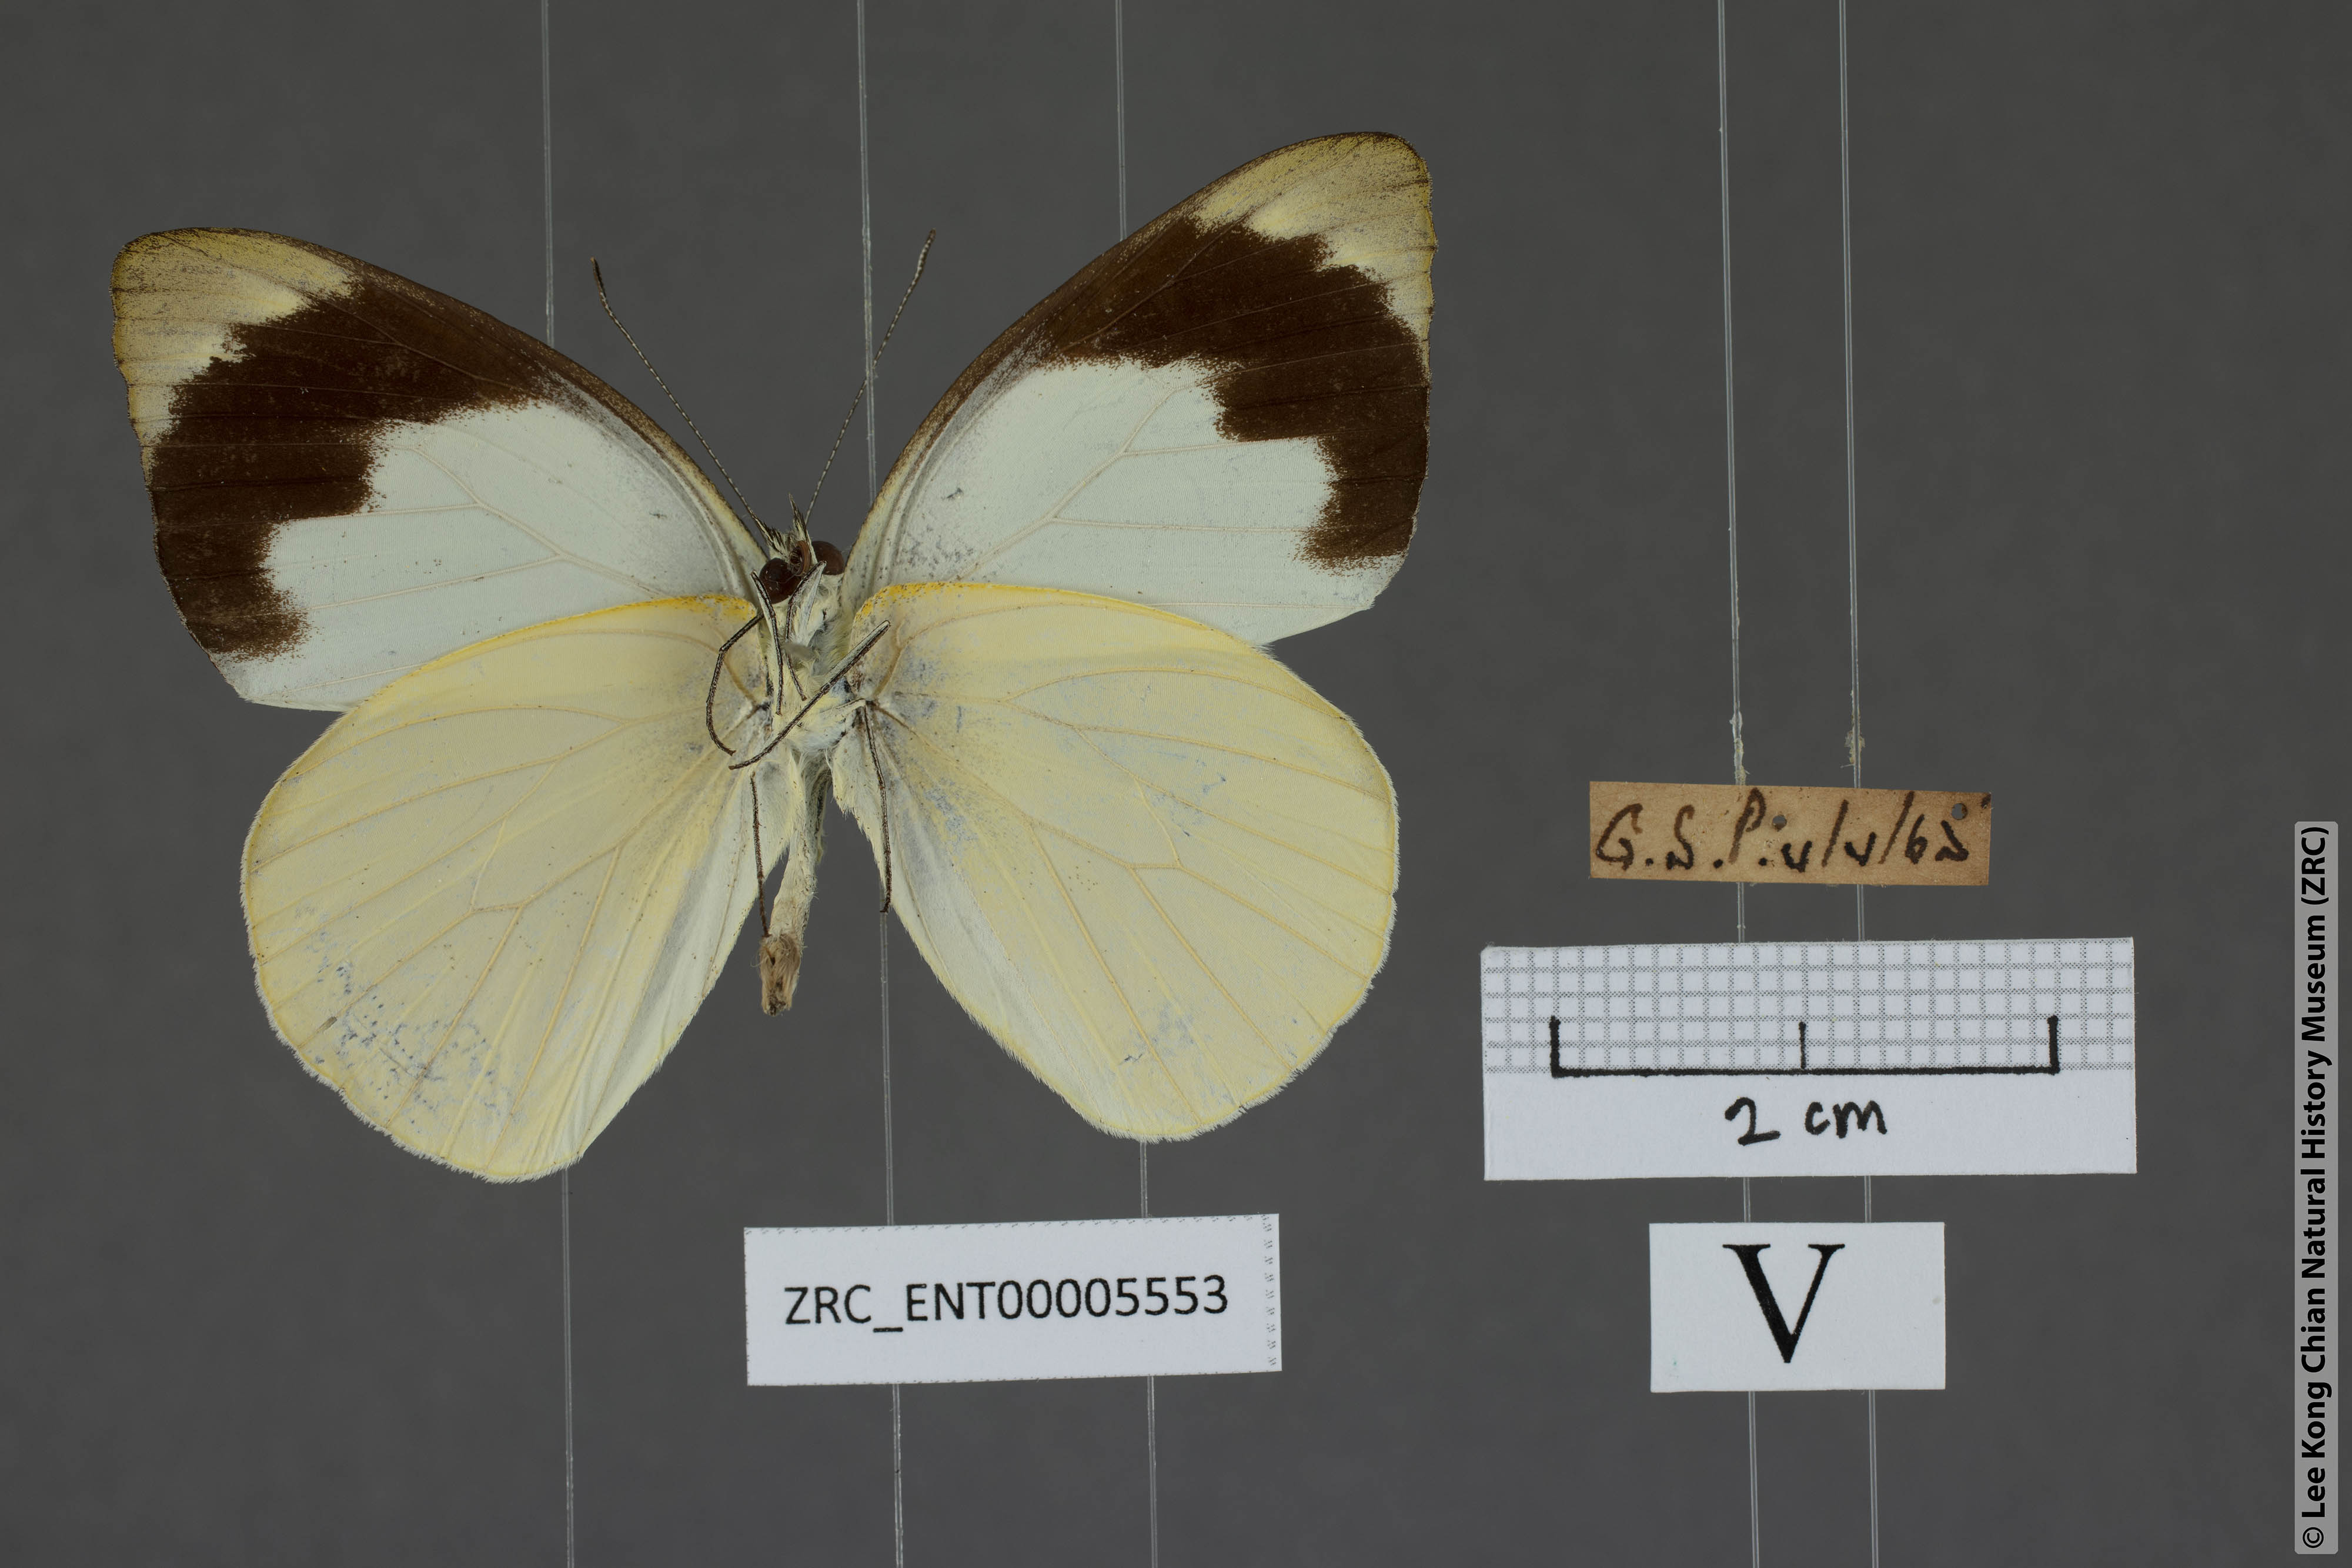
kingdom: Animalia
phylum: Arthropoda
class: Insecta
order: Lepidoptera
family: Pieridae
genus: Appias
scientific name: Appias indra
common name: Plain puffin
